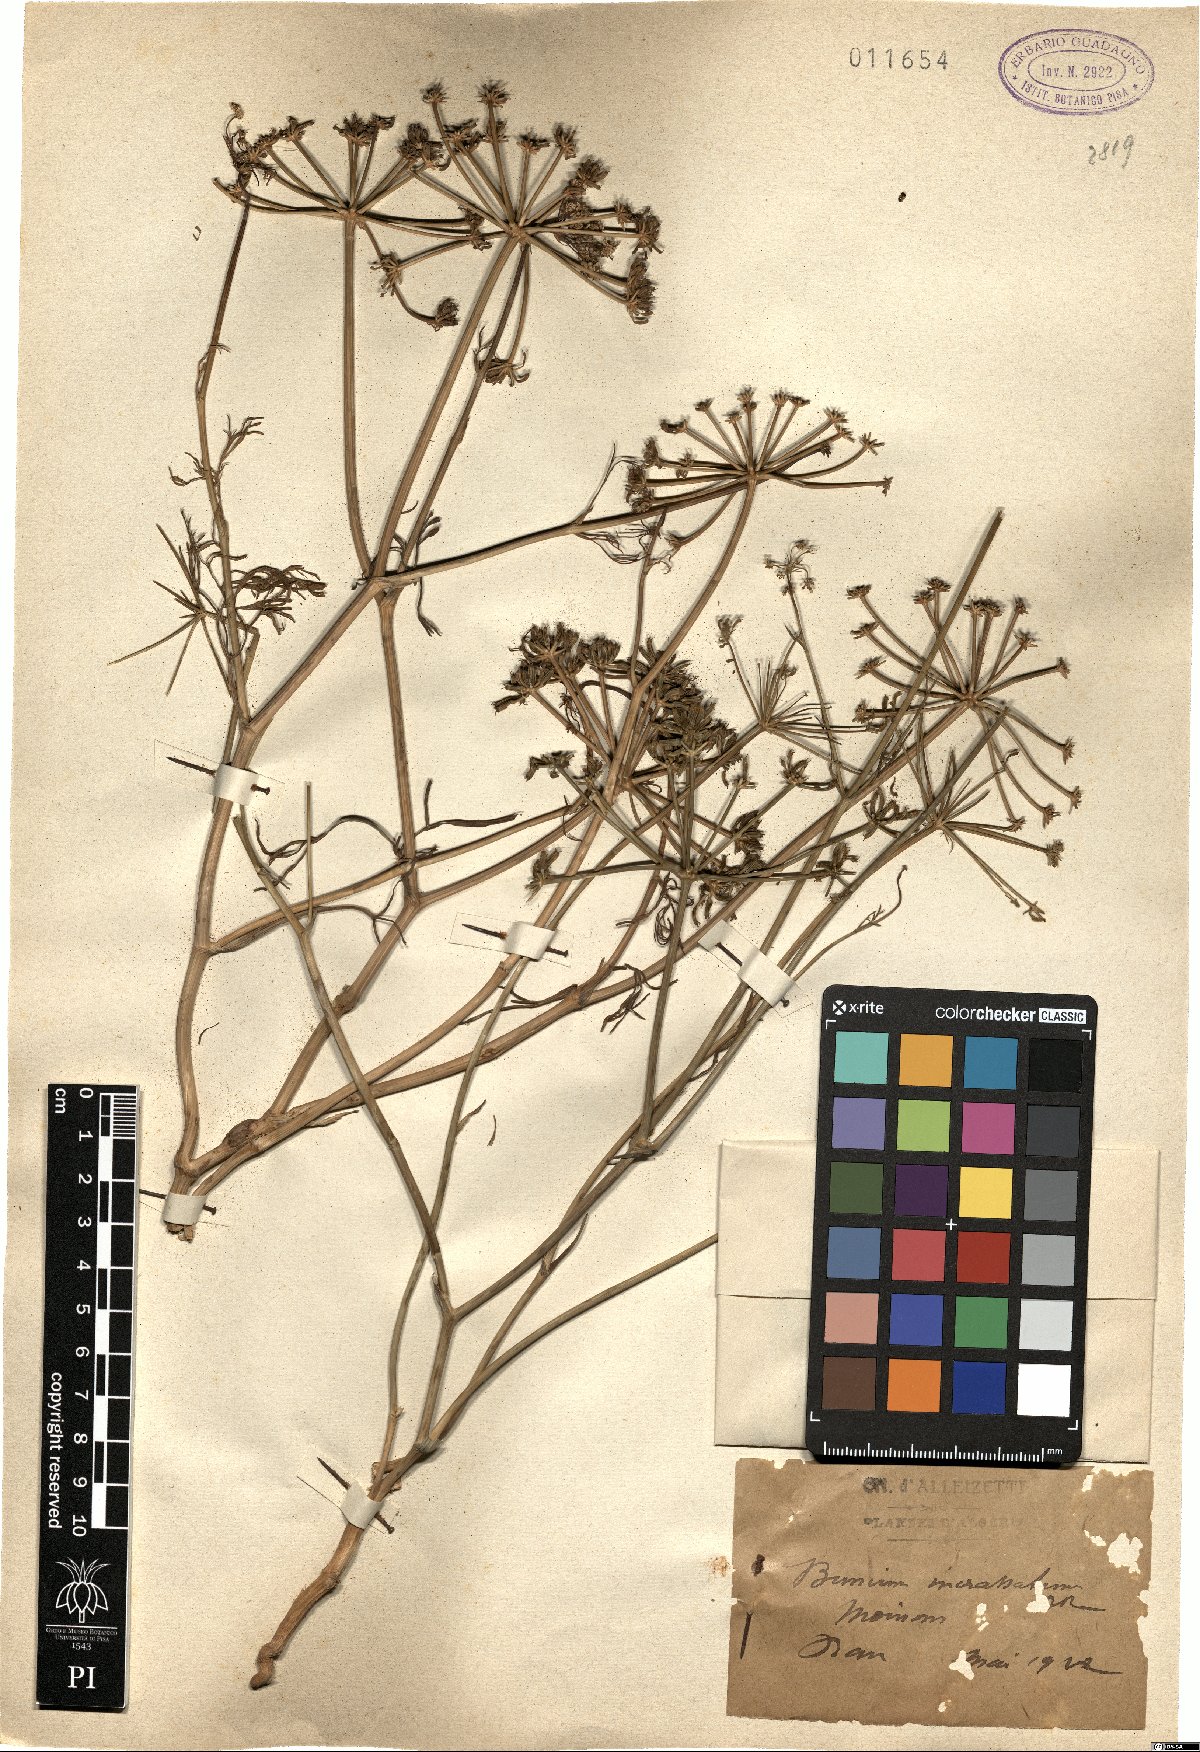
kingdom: Plantae
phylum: Tracheophyta
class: Magnoliopsida
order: Apiales
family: Apiaceae
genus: Bunium
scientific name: Bunium pachypodum
